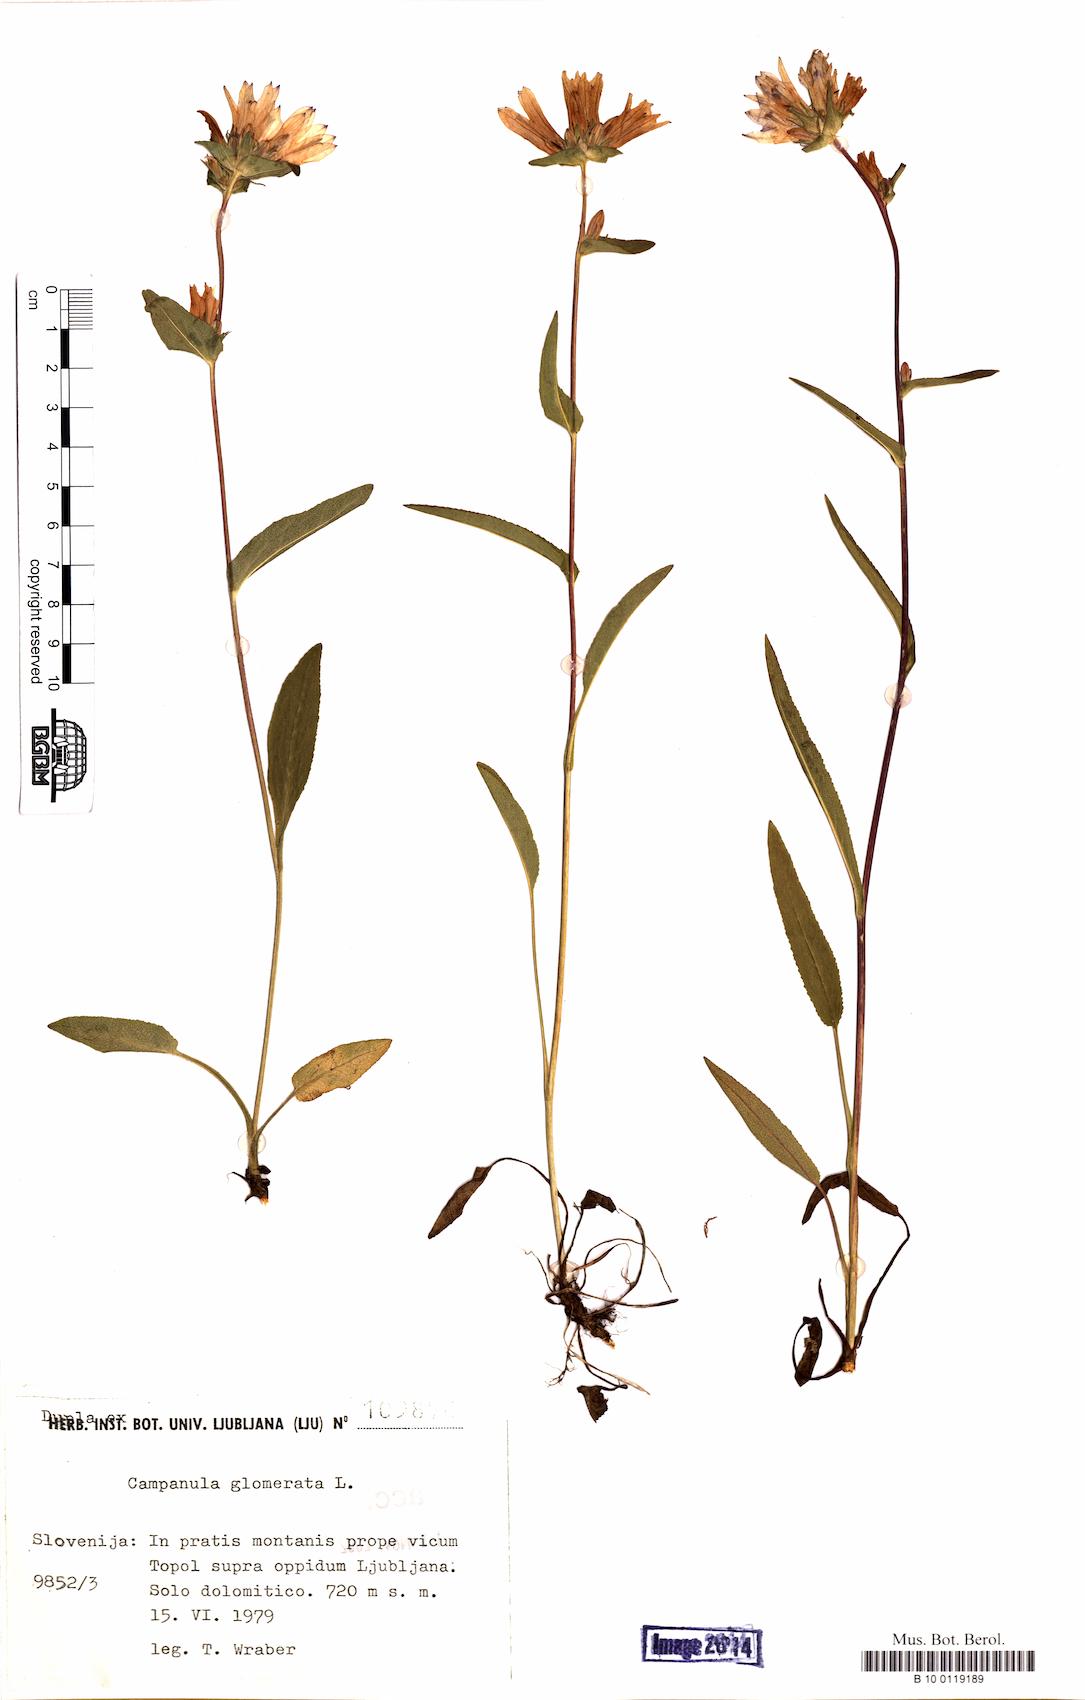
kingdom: Plantae
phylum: Tracheophyta
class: Magnoliopsida
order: Asterales
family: Campanulaceae
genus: Campanula
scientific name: Campanula glomerata
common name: Clustered bellflower
